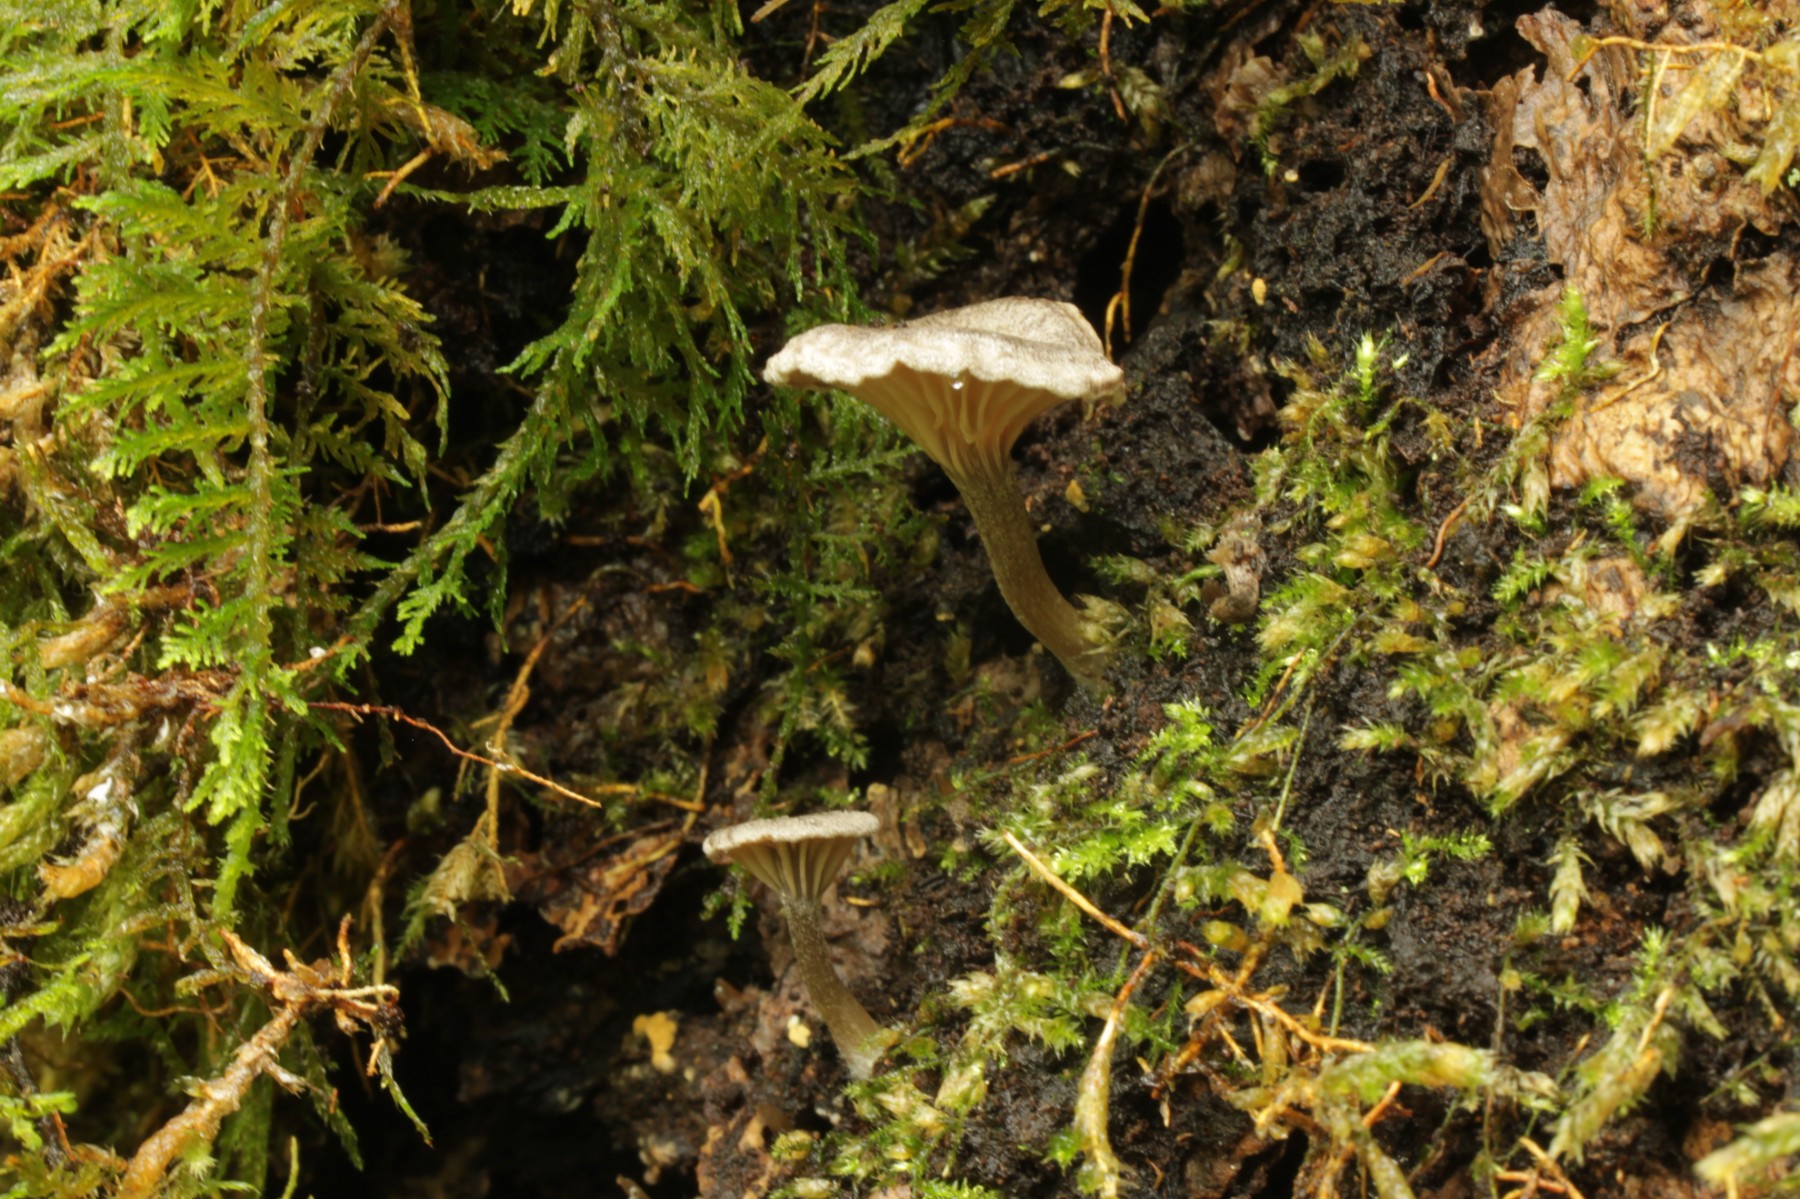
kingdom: Fungi
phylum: Basidiomycota
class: Agaricomycetes
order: Agaricales
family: Entolomataceae
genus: Entoloma
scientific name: Entoloma undatum
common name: bæltet rødblad
